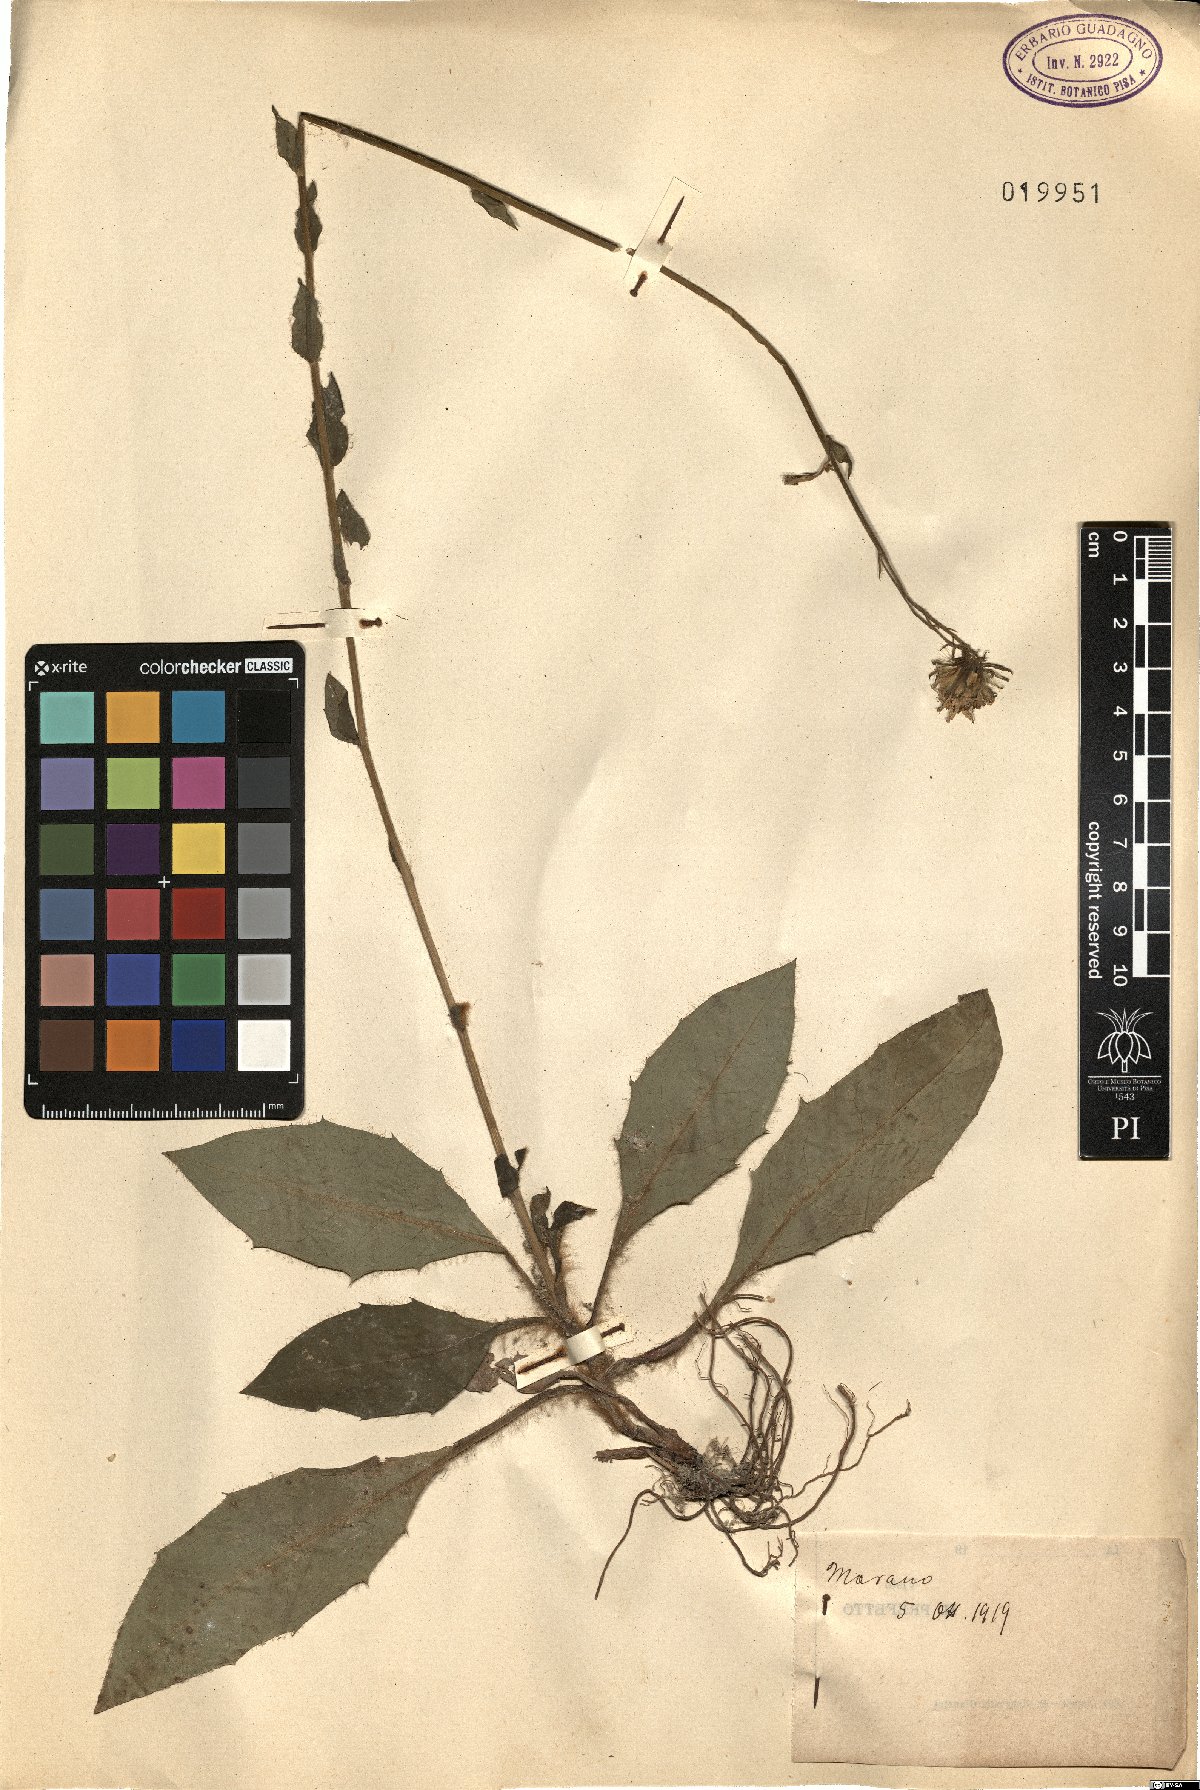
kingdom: Plantae
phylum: Tracheophyta
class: Magnoliopsida
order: Asterales
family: Asteraceae
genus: Hieracium
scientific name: Hieracium
